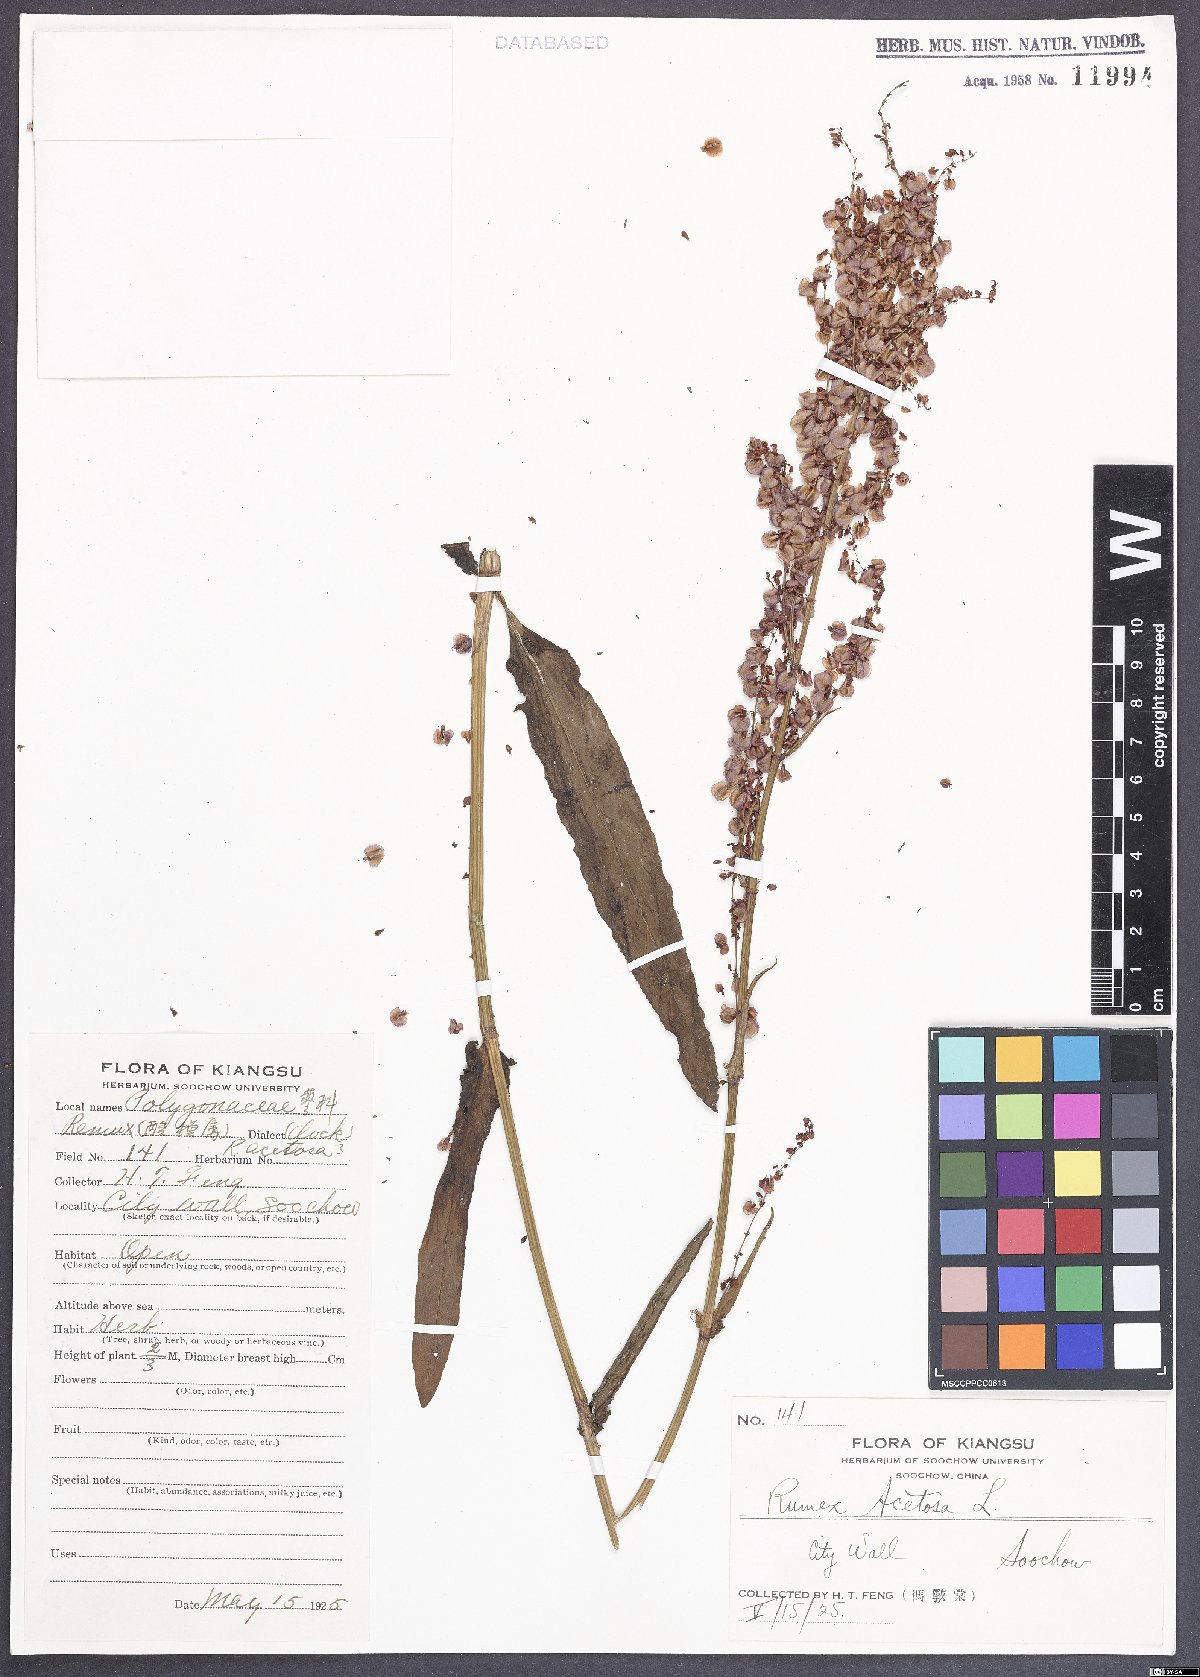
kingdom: Plantae
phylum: Tracheophyta
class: Magnoliopsida
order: Caryophyllales
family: Polygonaceae
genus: Rumex
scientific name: Rumex acetosa
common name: Garden sorrel
